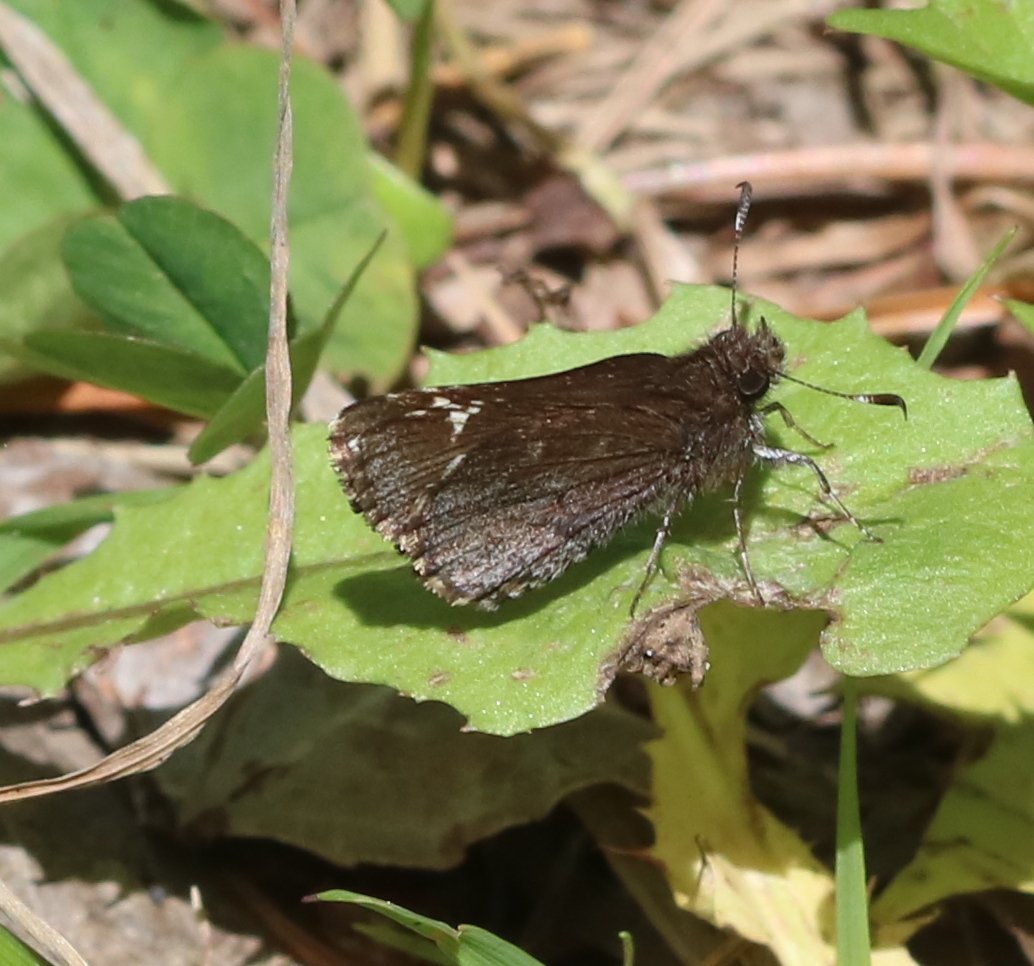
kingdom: Animalia
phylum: Arthropoda
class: Insecta
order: Lepidoptera
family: Hesperiidae
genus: Mastor
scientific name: Mastor vialis
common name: Common Roadside-Skipper
